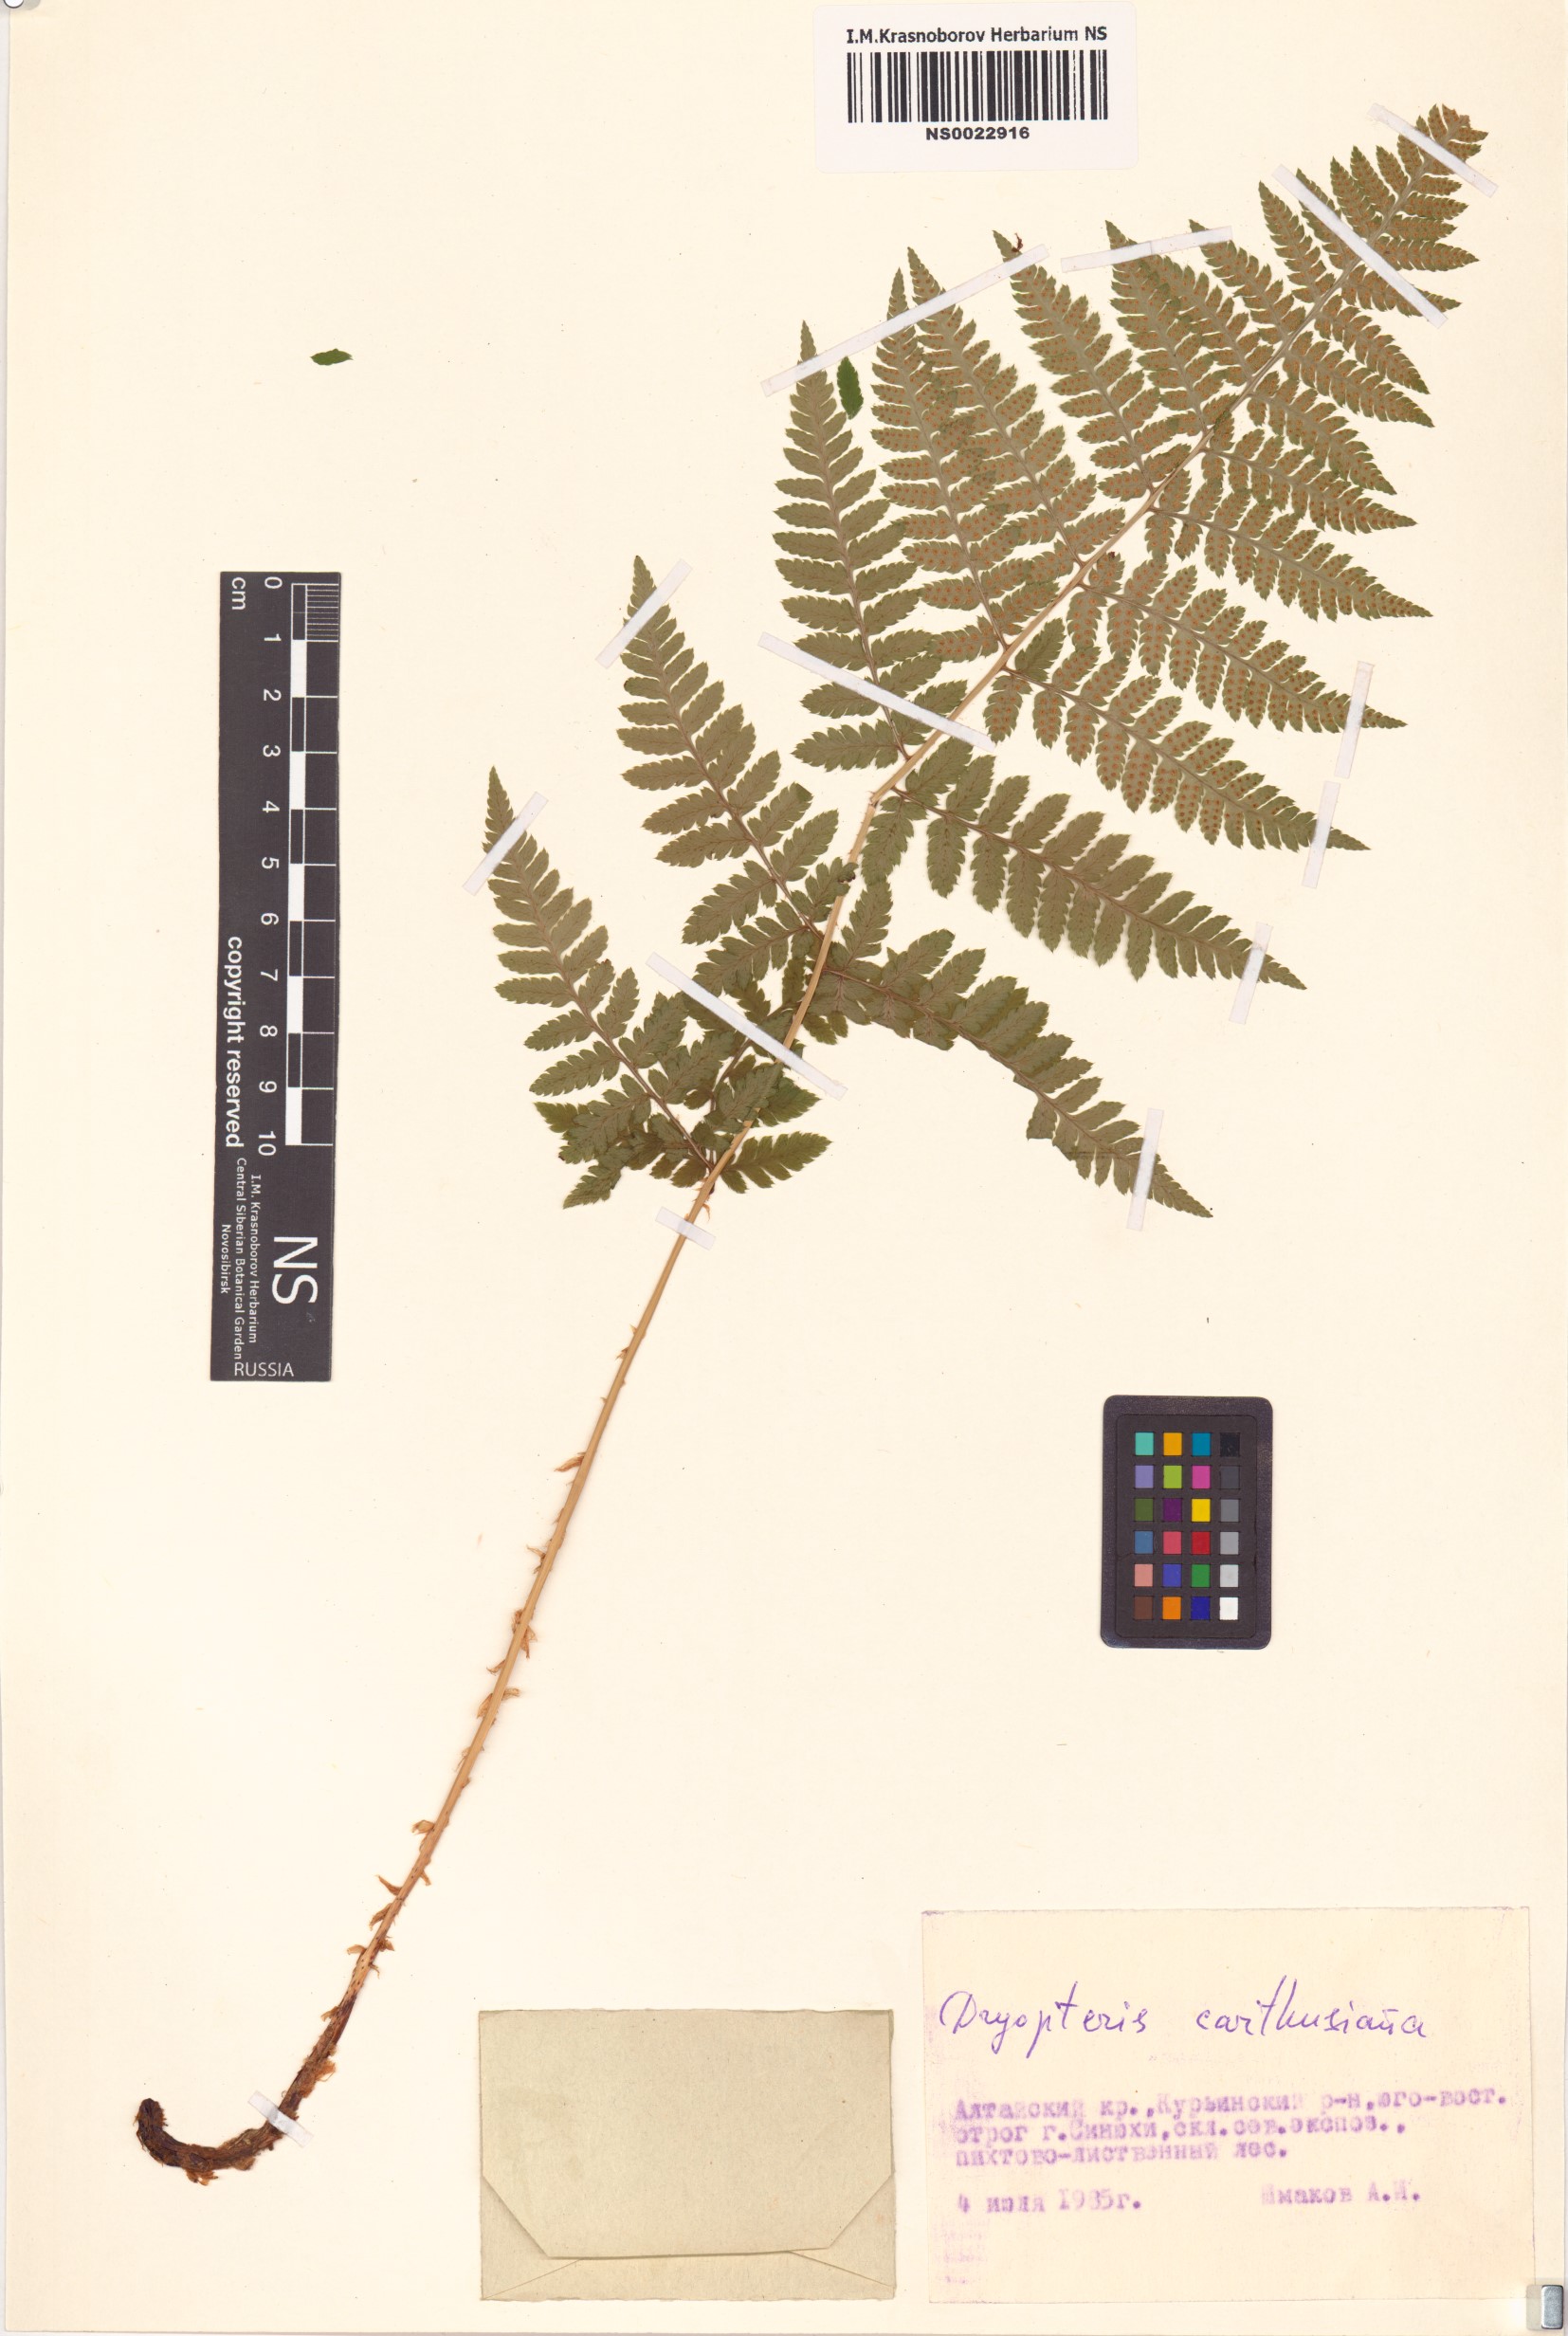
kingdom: Plantae
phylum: Tracheophyta
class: Polypodiopsida
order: Polypodiales
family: Dryopteridaceae
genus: Dryopteris
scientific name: Dryopteris carthusiana
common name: Narrow buckler-fern
